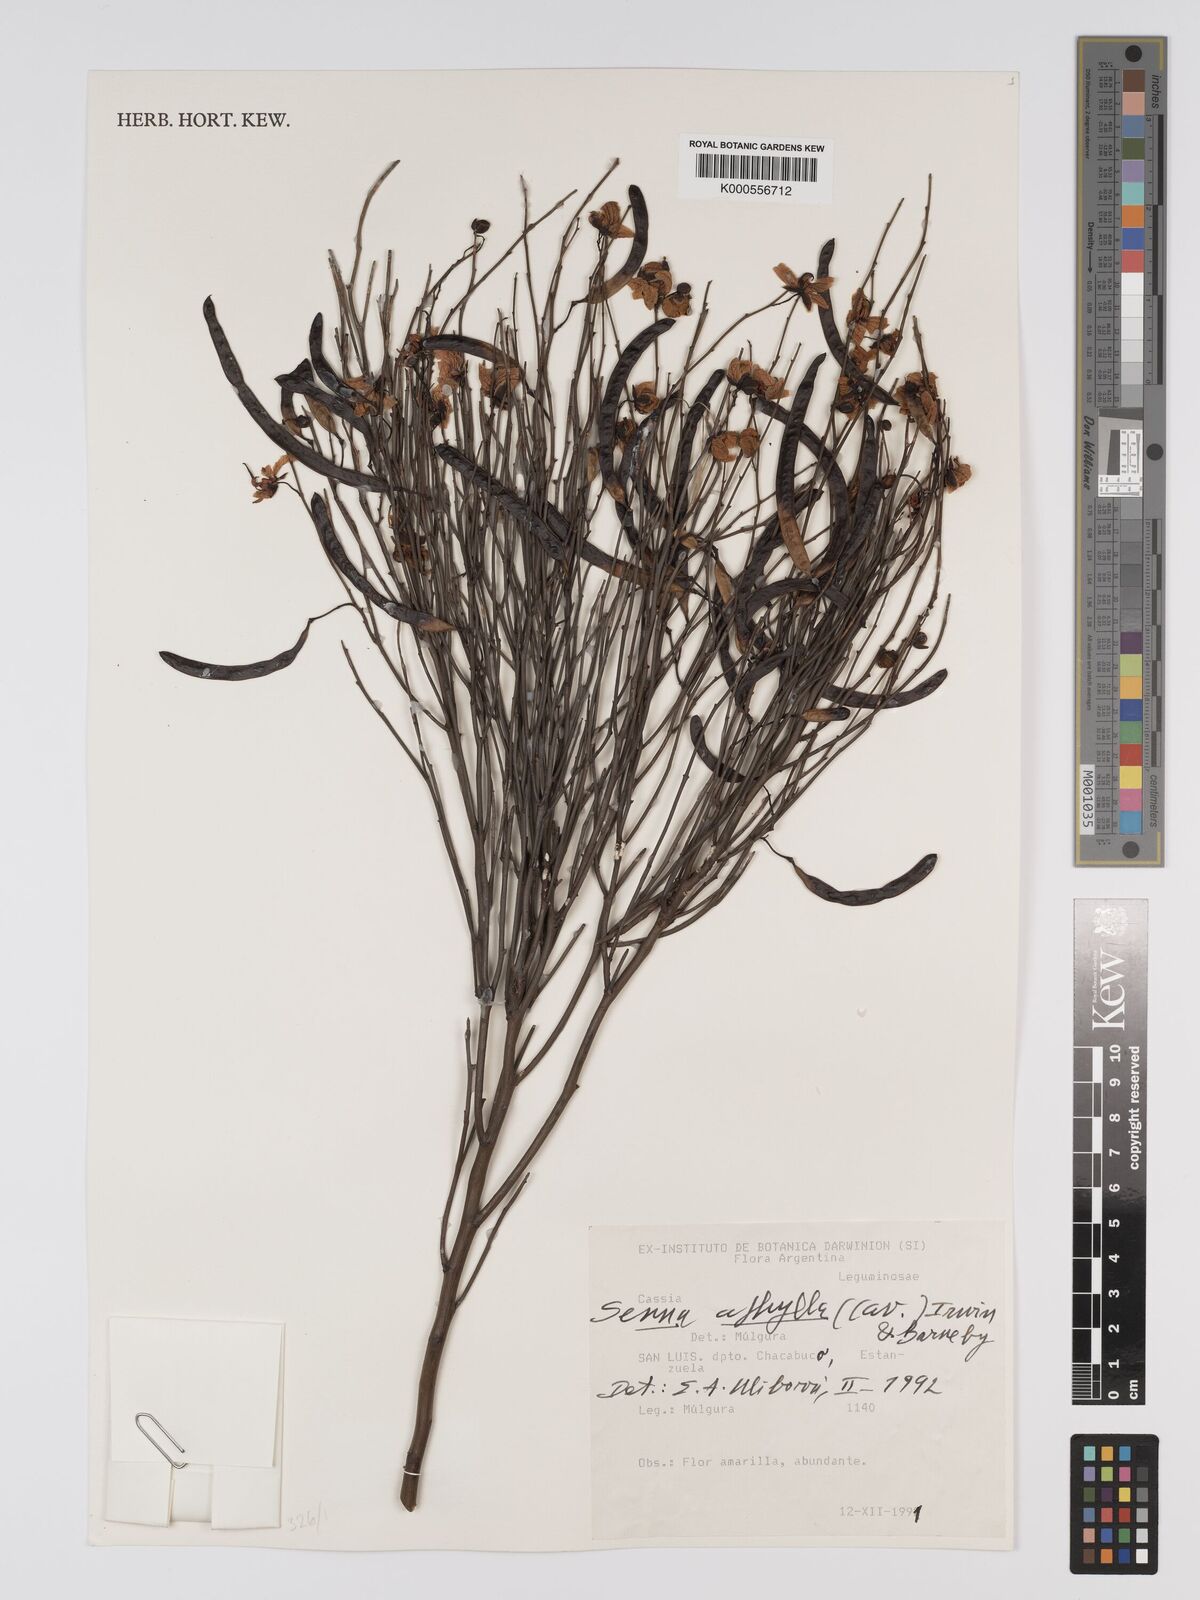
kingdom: Plantae
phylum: Tracheophyta
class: Magnoliopsida
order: Fabales
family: Fabaceae
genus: Senna
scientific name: Senna aphylla
